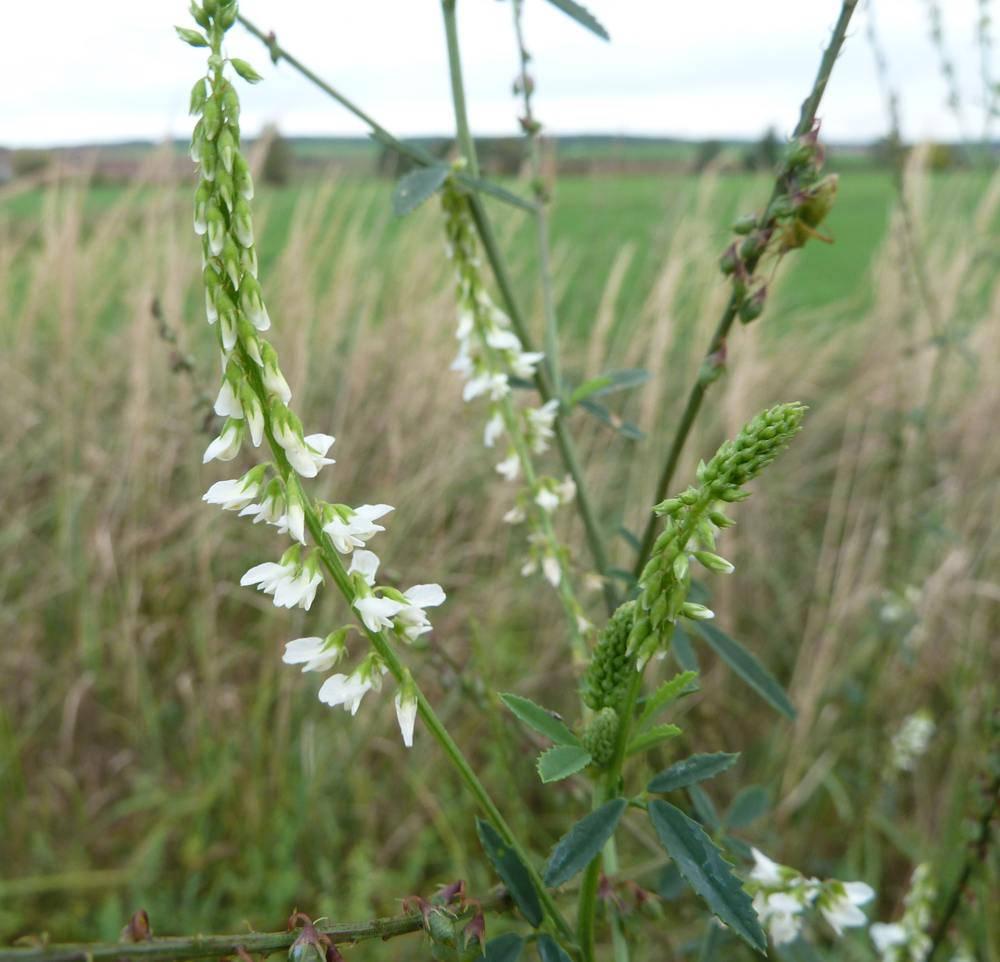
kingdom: Plantae
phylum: Tracheophyta
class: Magnoliopsida
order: Fabales
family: Fabaceae
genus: Melilotus
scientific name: Melilotus albus
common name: White melilot
